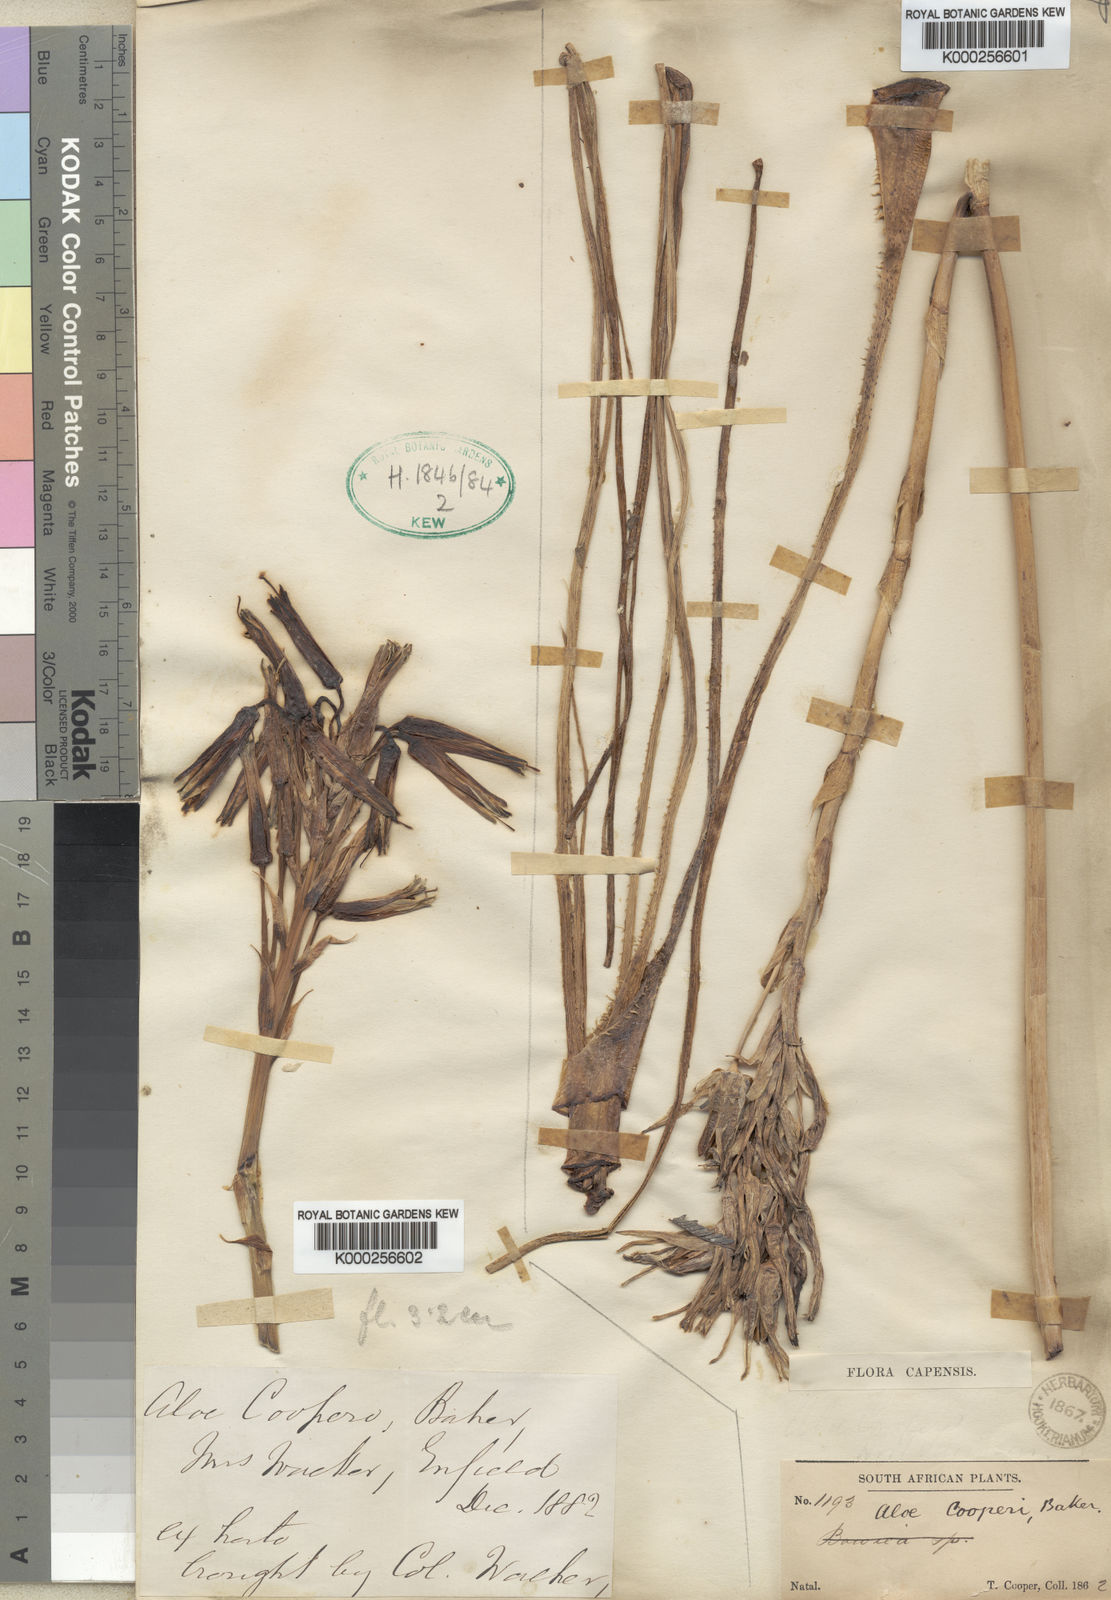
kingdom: Plantae
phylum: Tracheophyta
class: Liliopsida
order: Asparagales
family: Asphodelaceae
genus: Aloe
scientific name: Aloe cooperi
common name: Cooper's aloe
